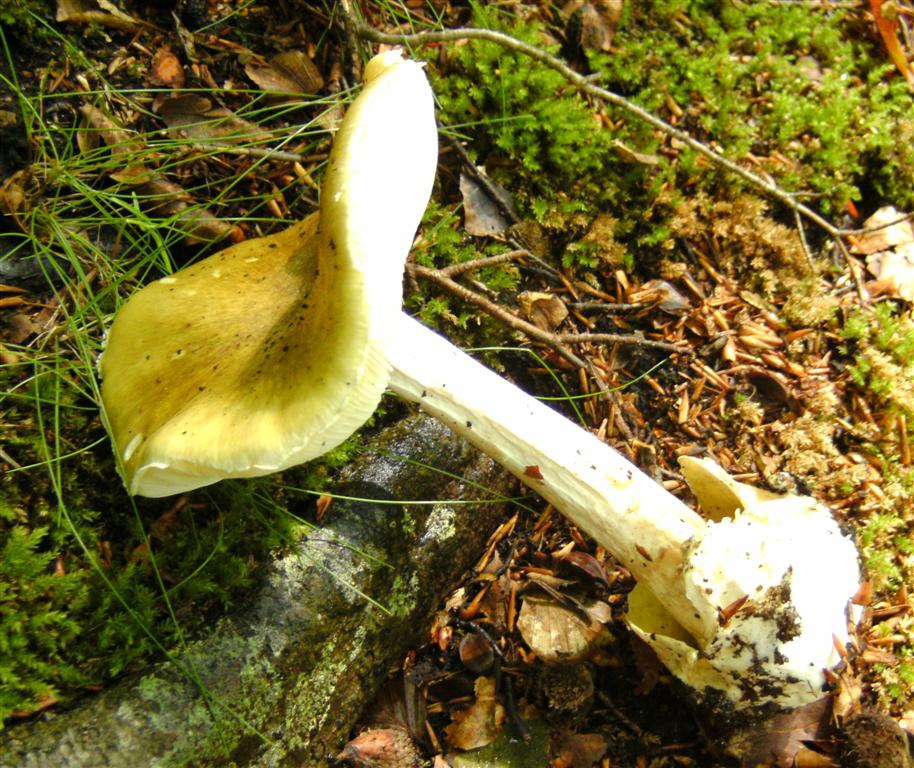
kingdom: Fungi
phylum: Basidiomycota
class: Agaricomycetes
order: Agaricales
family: Amanitaceae
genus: Amanita
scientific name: Amanita phalloides
